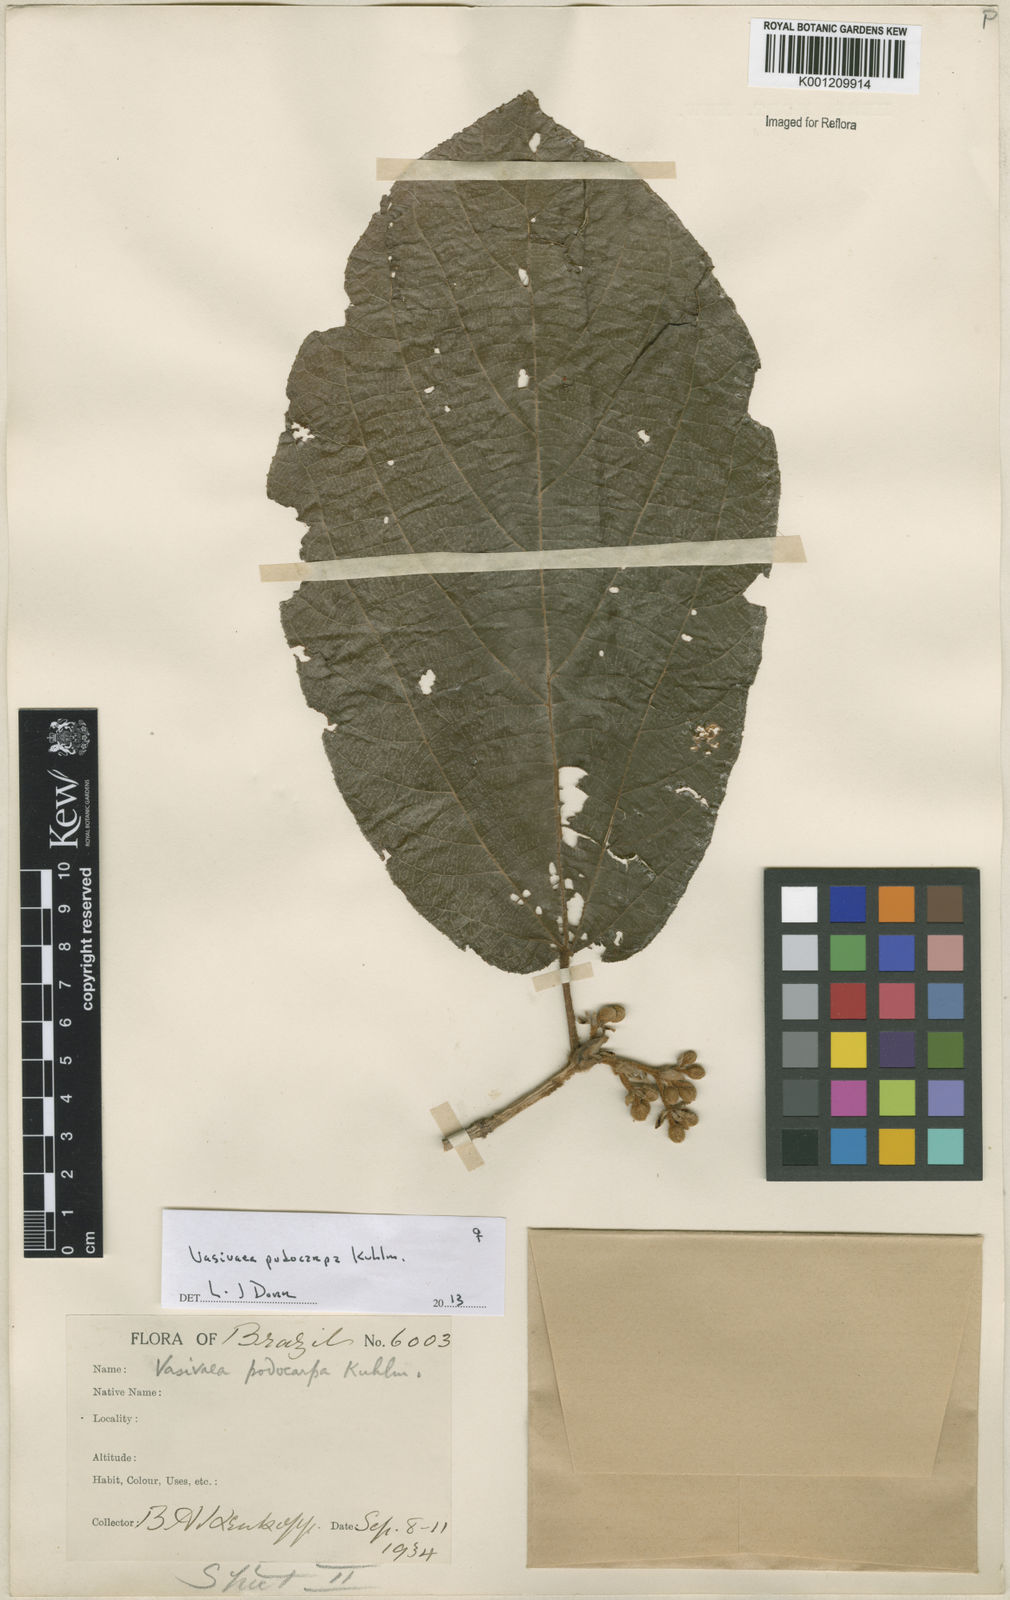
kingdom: Plantae
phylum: Tracheophyta
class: Magnoliopsida
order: Malvales
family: Malvaceae
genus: Vasivaea
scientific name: Vasivaea podocarpa
